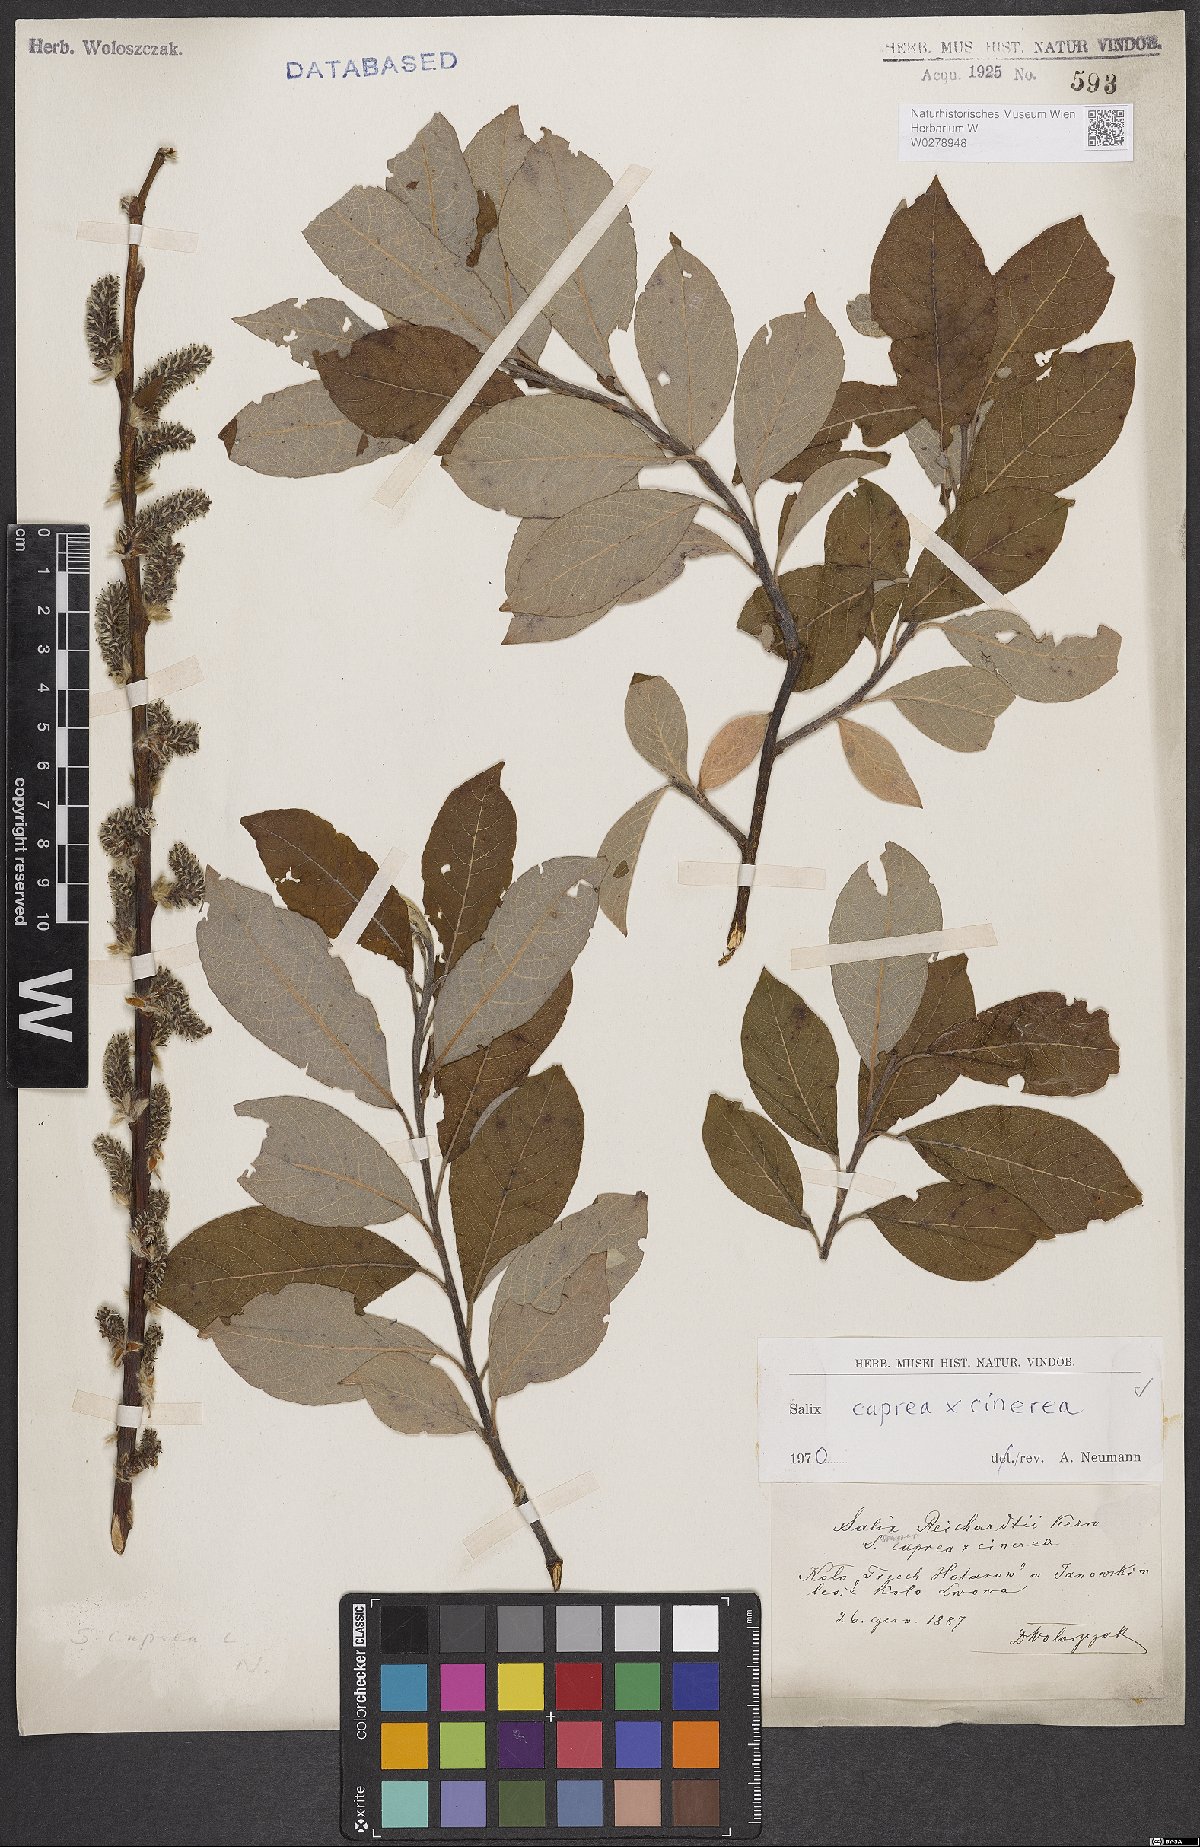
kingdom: Plantae
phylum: Tracheophyta
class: Magnoliopsida
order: Malpighiales
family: Salicaceae
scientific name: Salicaceae
